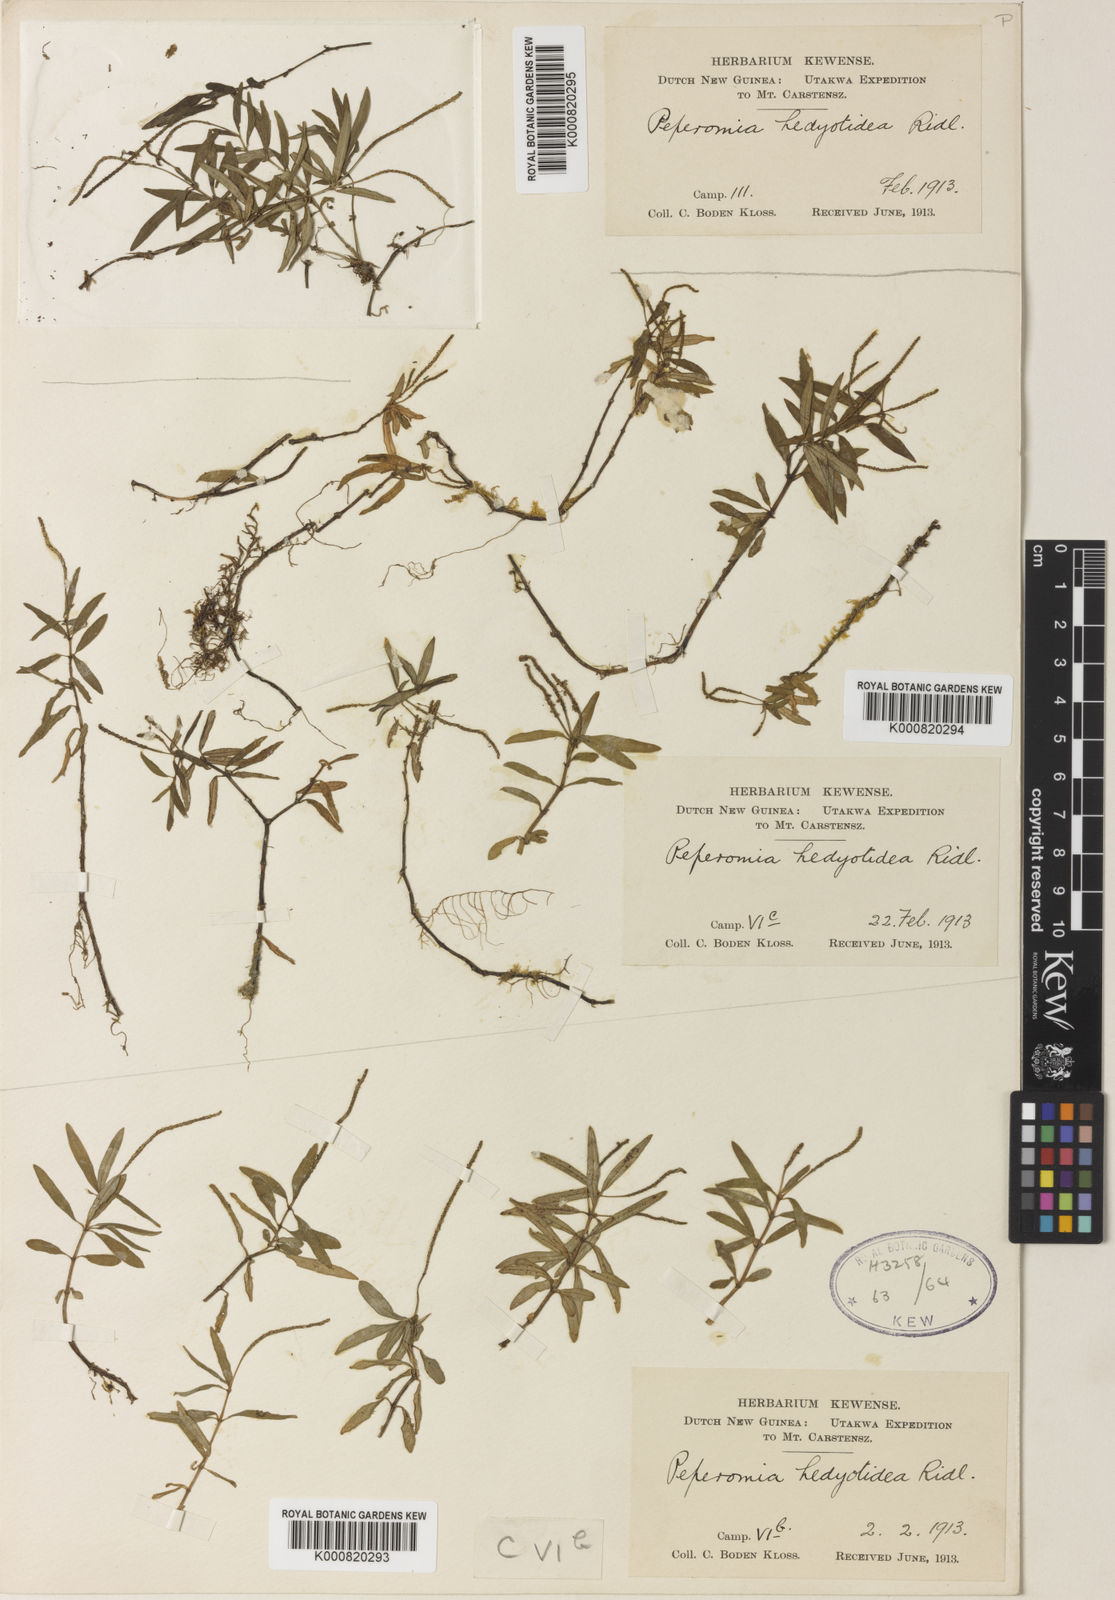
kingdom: Plantae
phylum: Tracheophyta
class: Magnoliopsida
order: Piperales
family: Piperaceae
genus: Peperomia
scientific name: Peperomia hedyotidea
